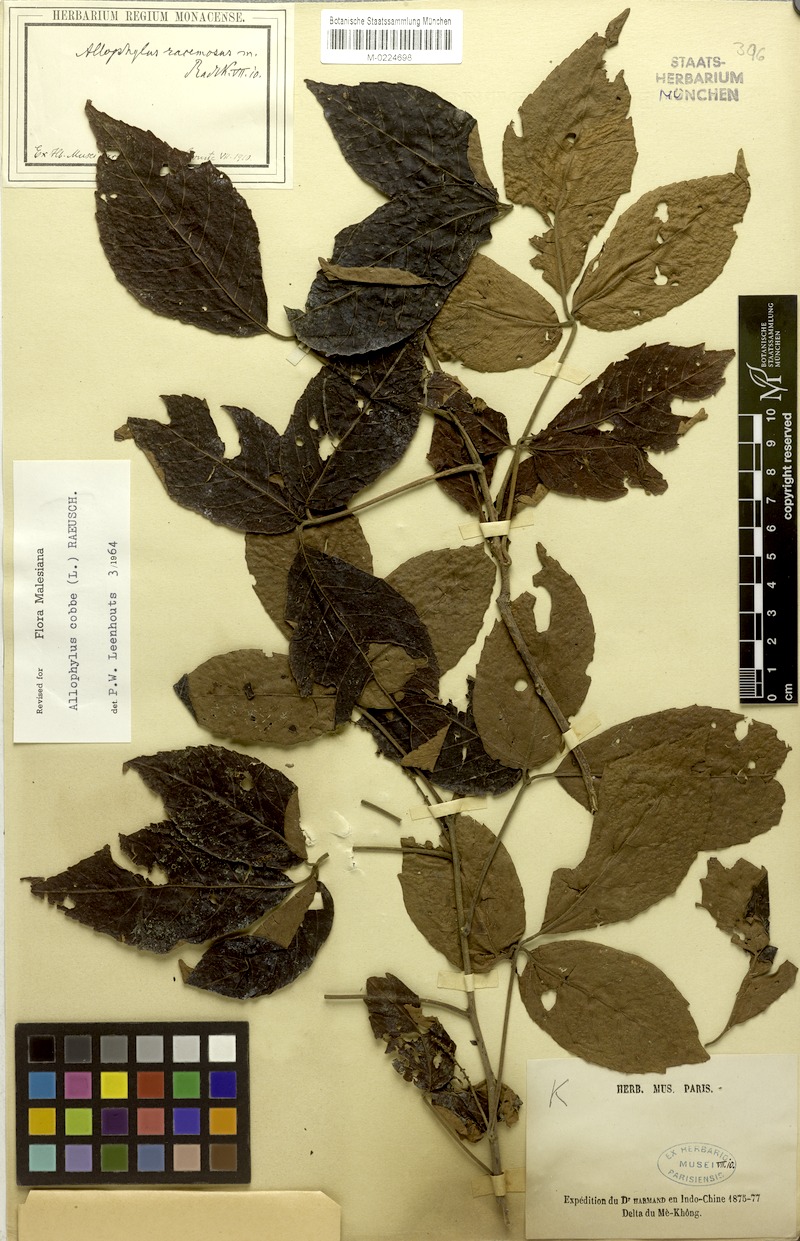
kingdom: Plantae
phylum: Tracheophyta
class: Magnoliopsida
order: Sapindales
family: Sapindaceae
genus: Allophylus
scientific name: Allophylus racemosus
